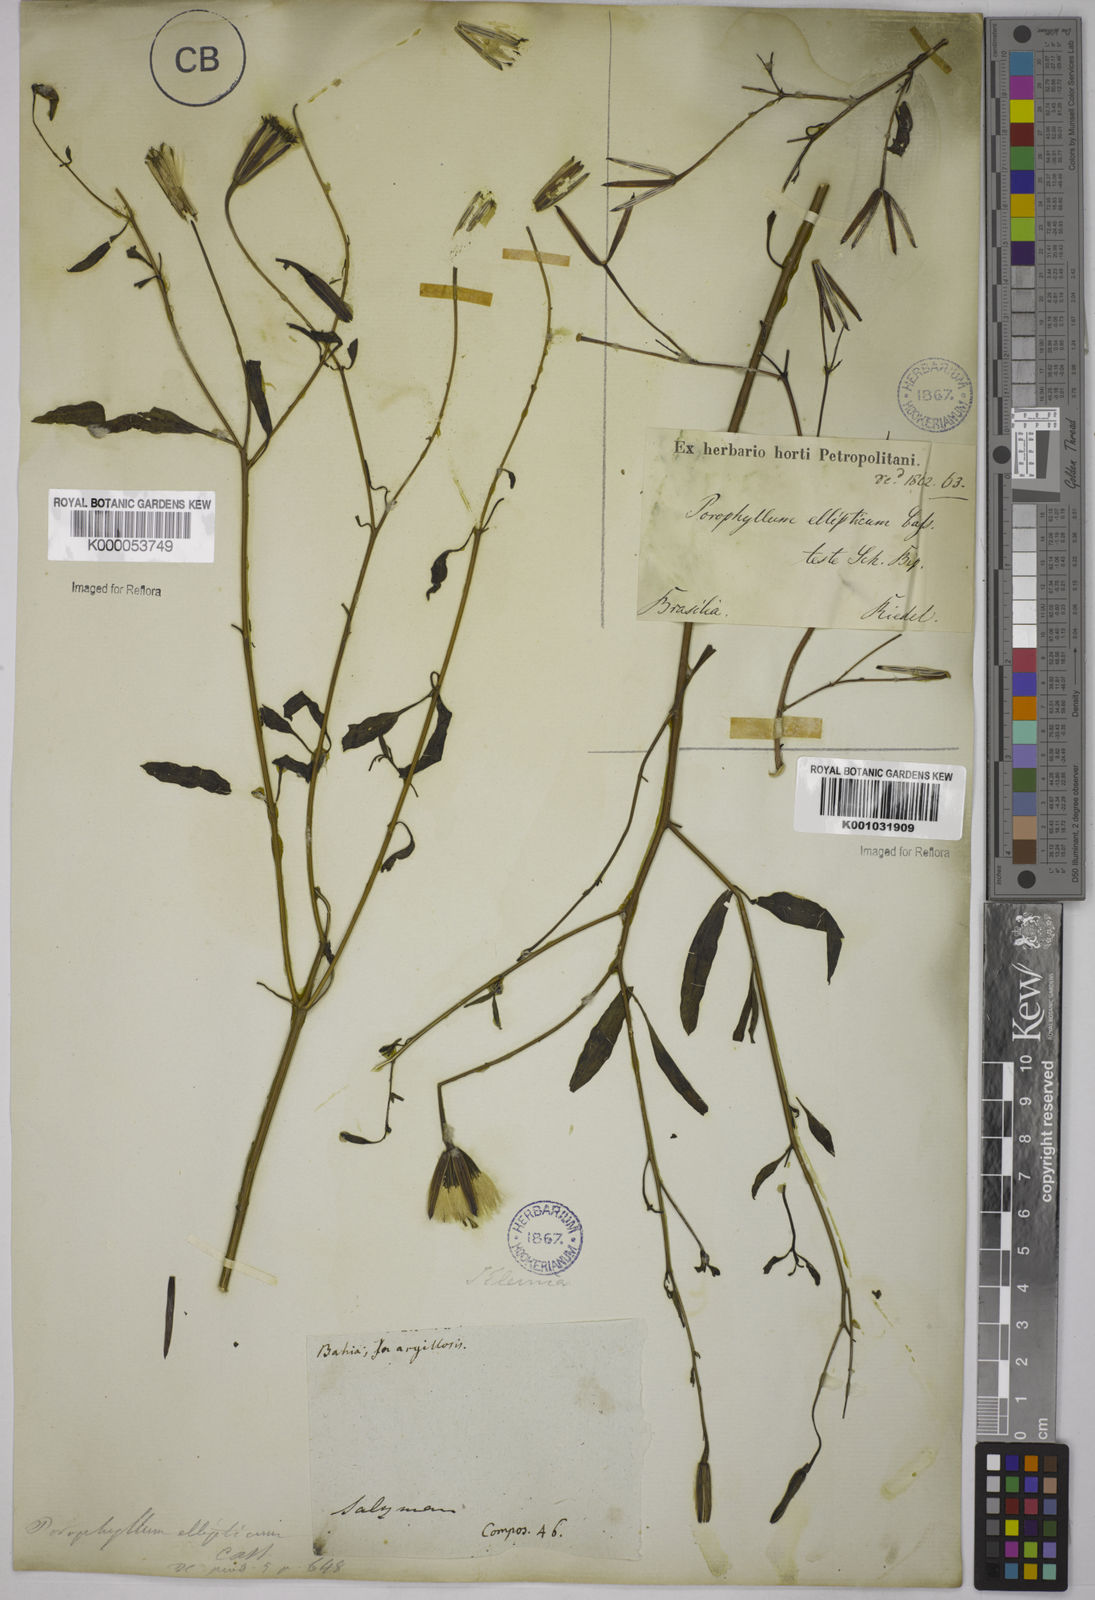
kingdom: Plantae
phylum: Tracheophyta
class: Magnoliopsida
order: Asterales
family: Asteraceae
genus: Porophyllum
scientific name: Porophyllum ruderale
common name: Yerba porosa
